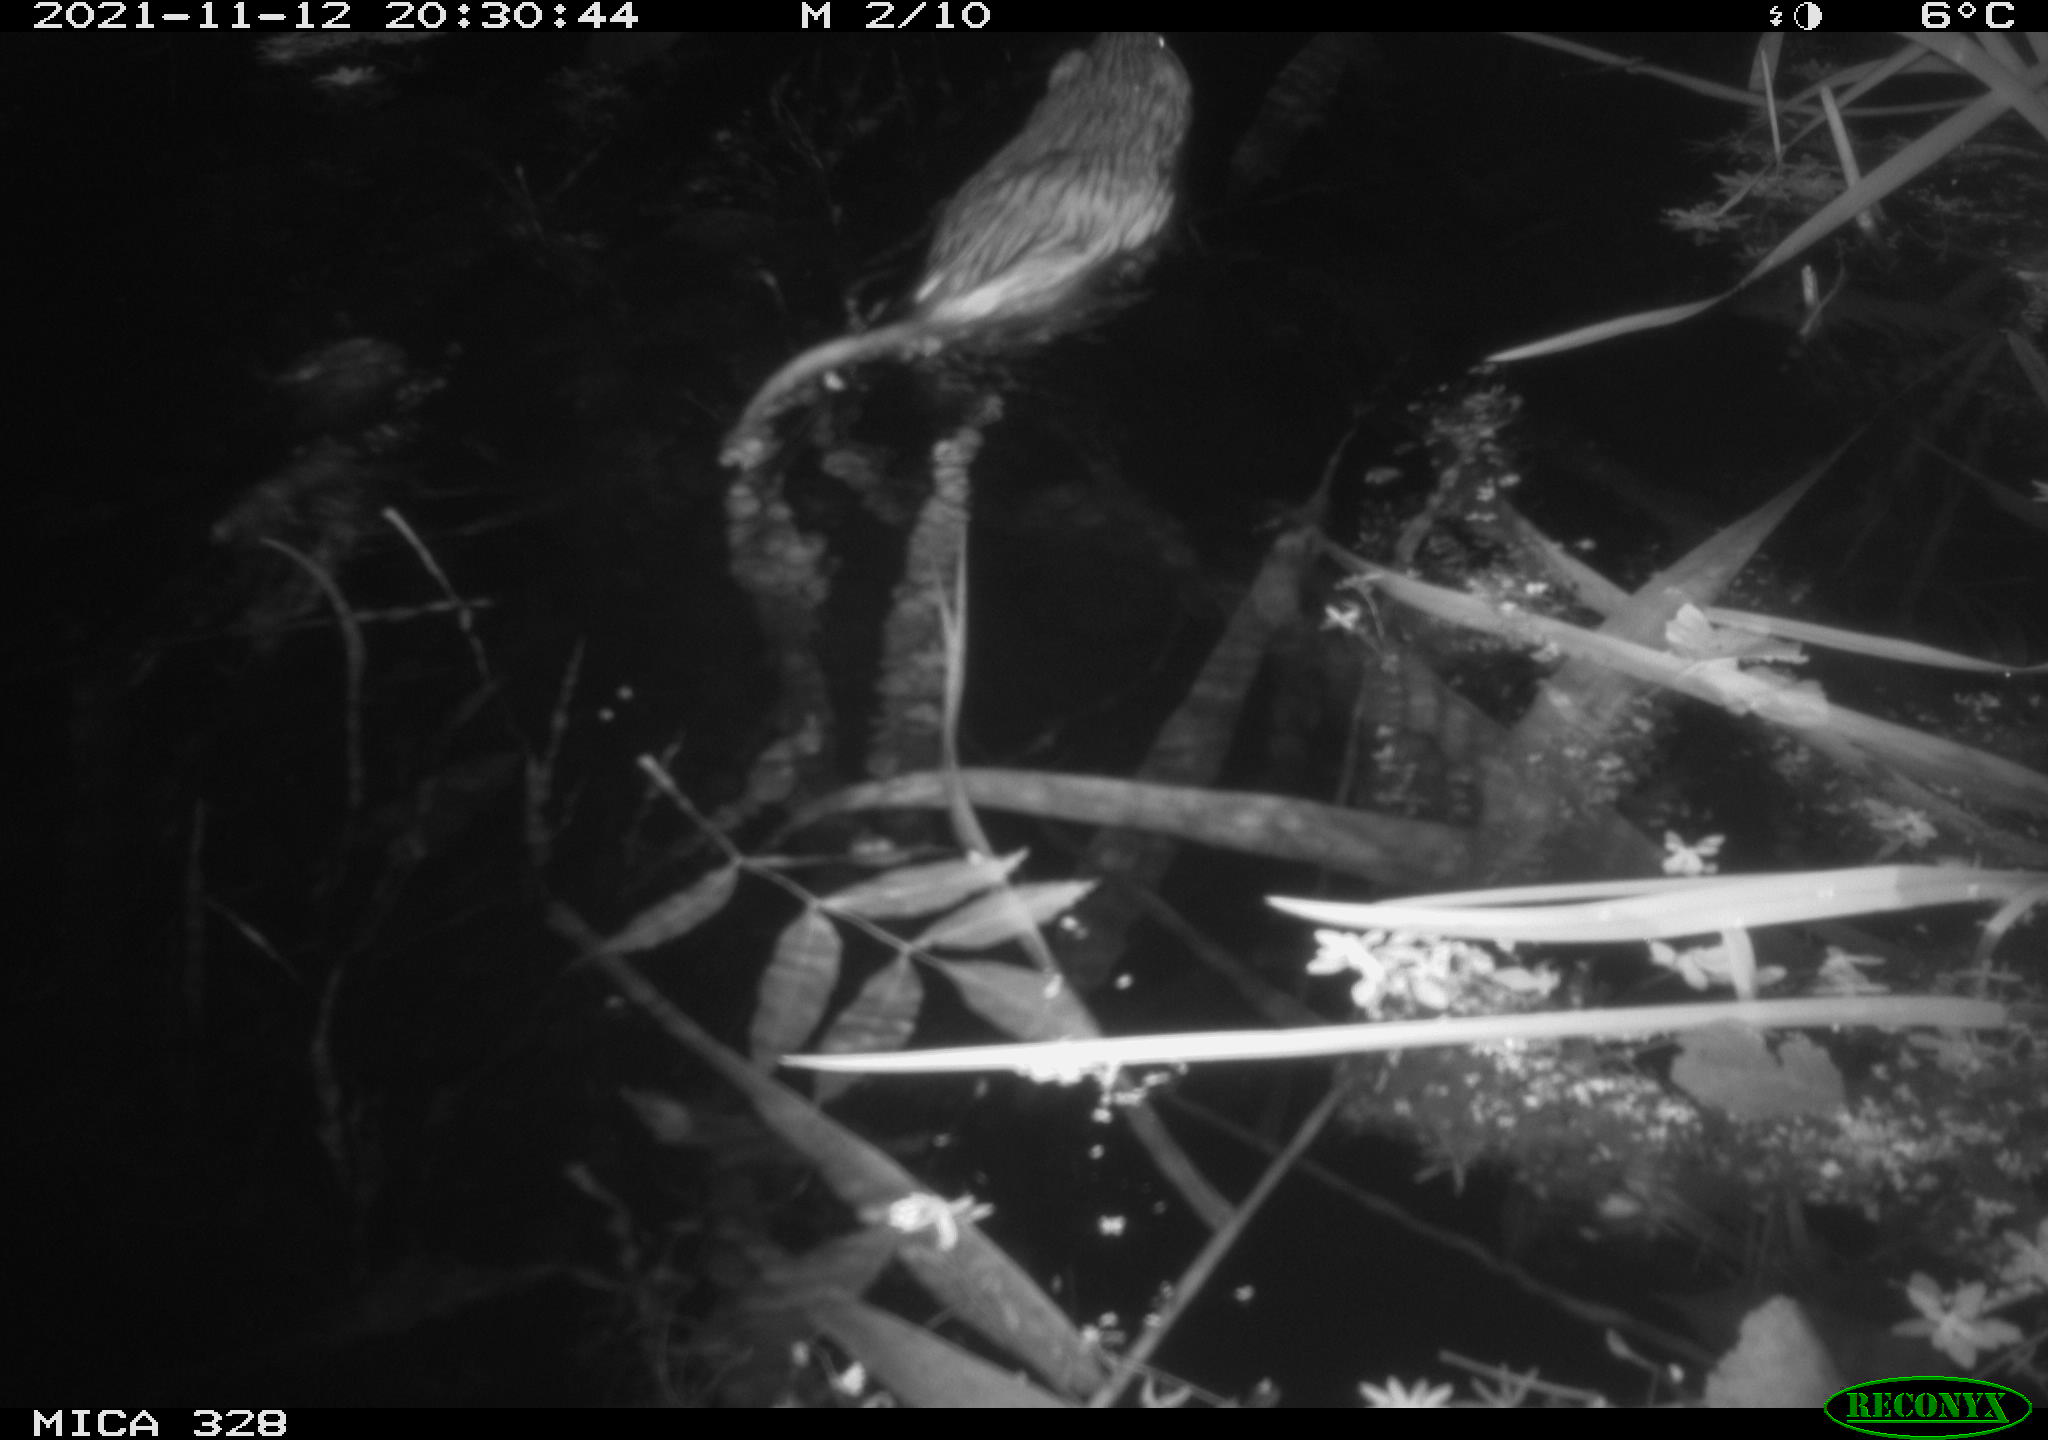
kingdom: Animalia
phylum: Chordata
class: Mammalia
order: Rodentia
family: Cricetidae
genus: Ondatra
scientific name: Ondatra zibethicus
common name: Muskrat
